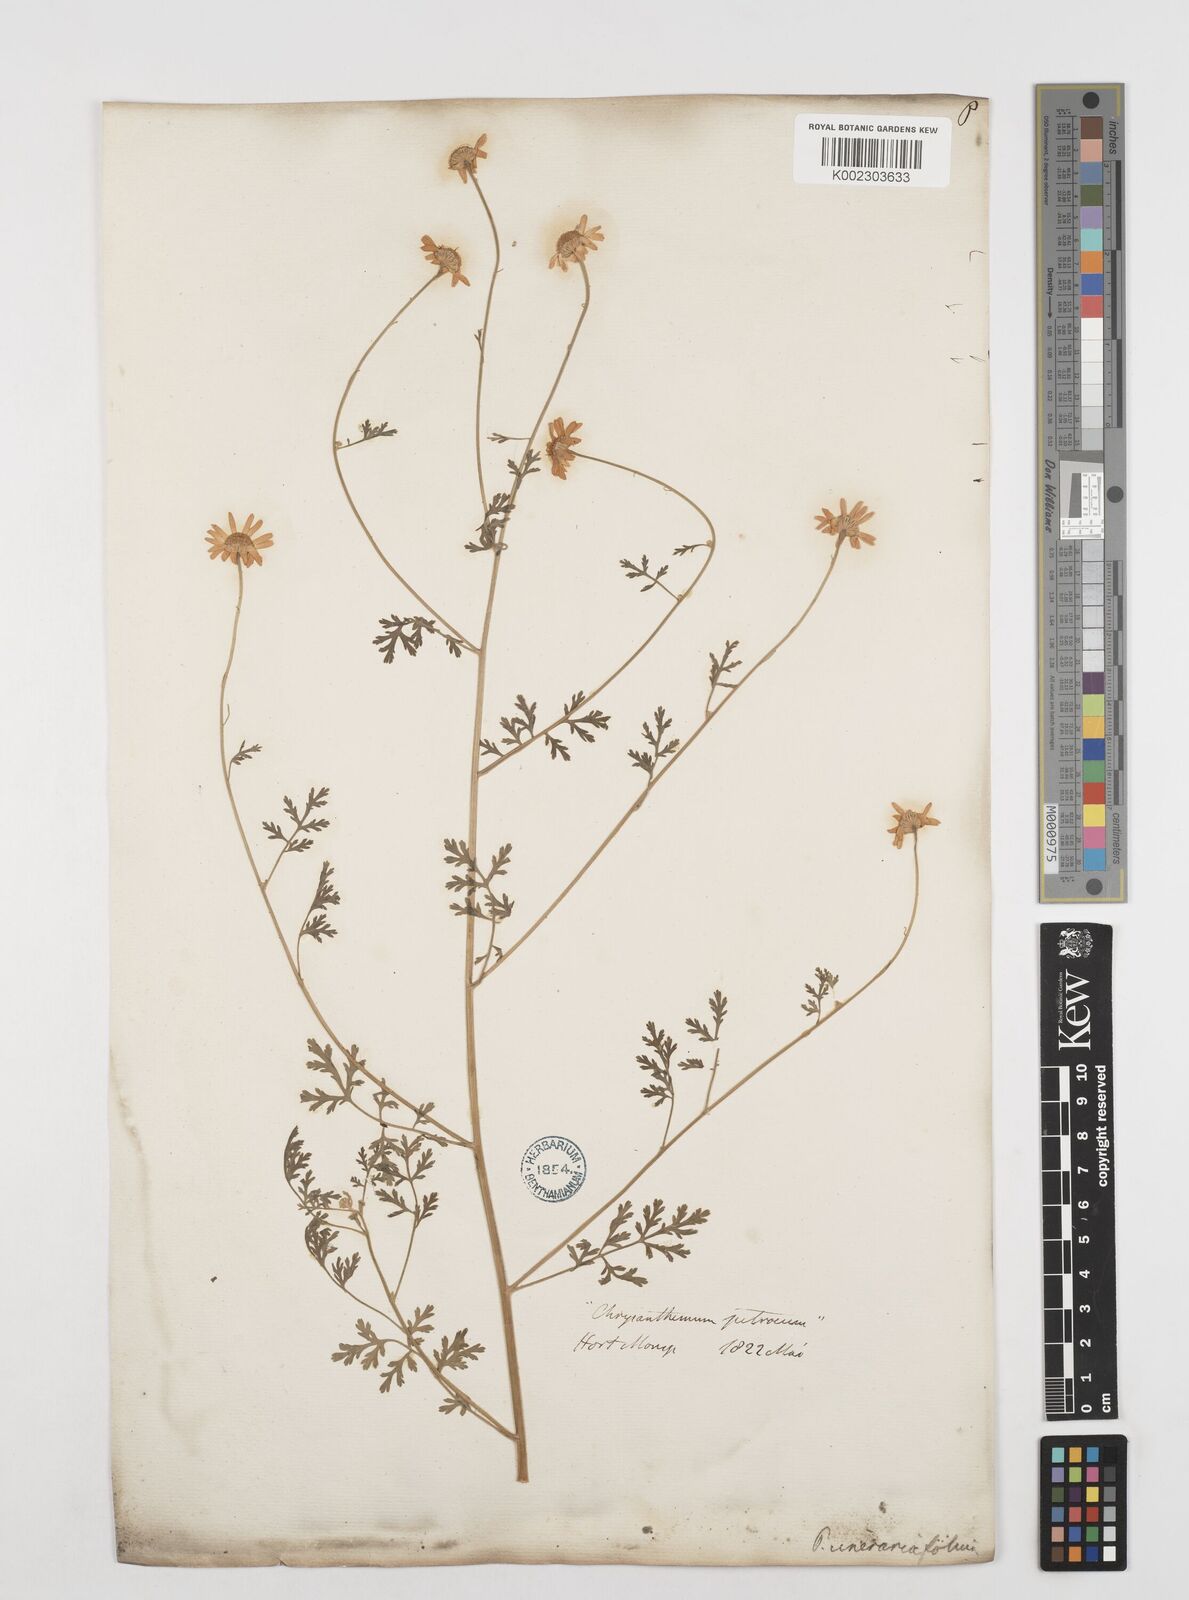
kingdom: Plantae
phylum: Tracheophyta
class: Magnoliopsida
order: Asterales
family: Asteraceae
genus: Tanacetum
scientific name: Tanacetum cinerariifolium
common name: Dalmatian pyrethrum
